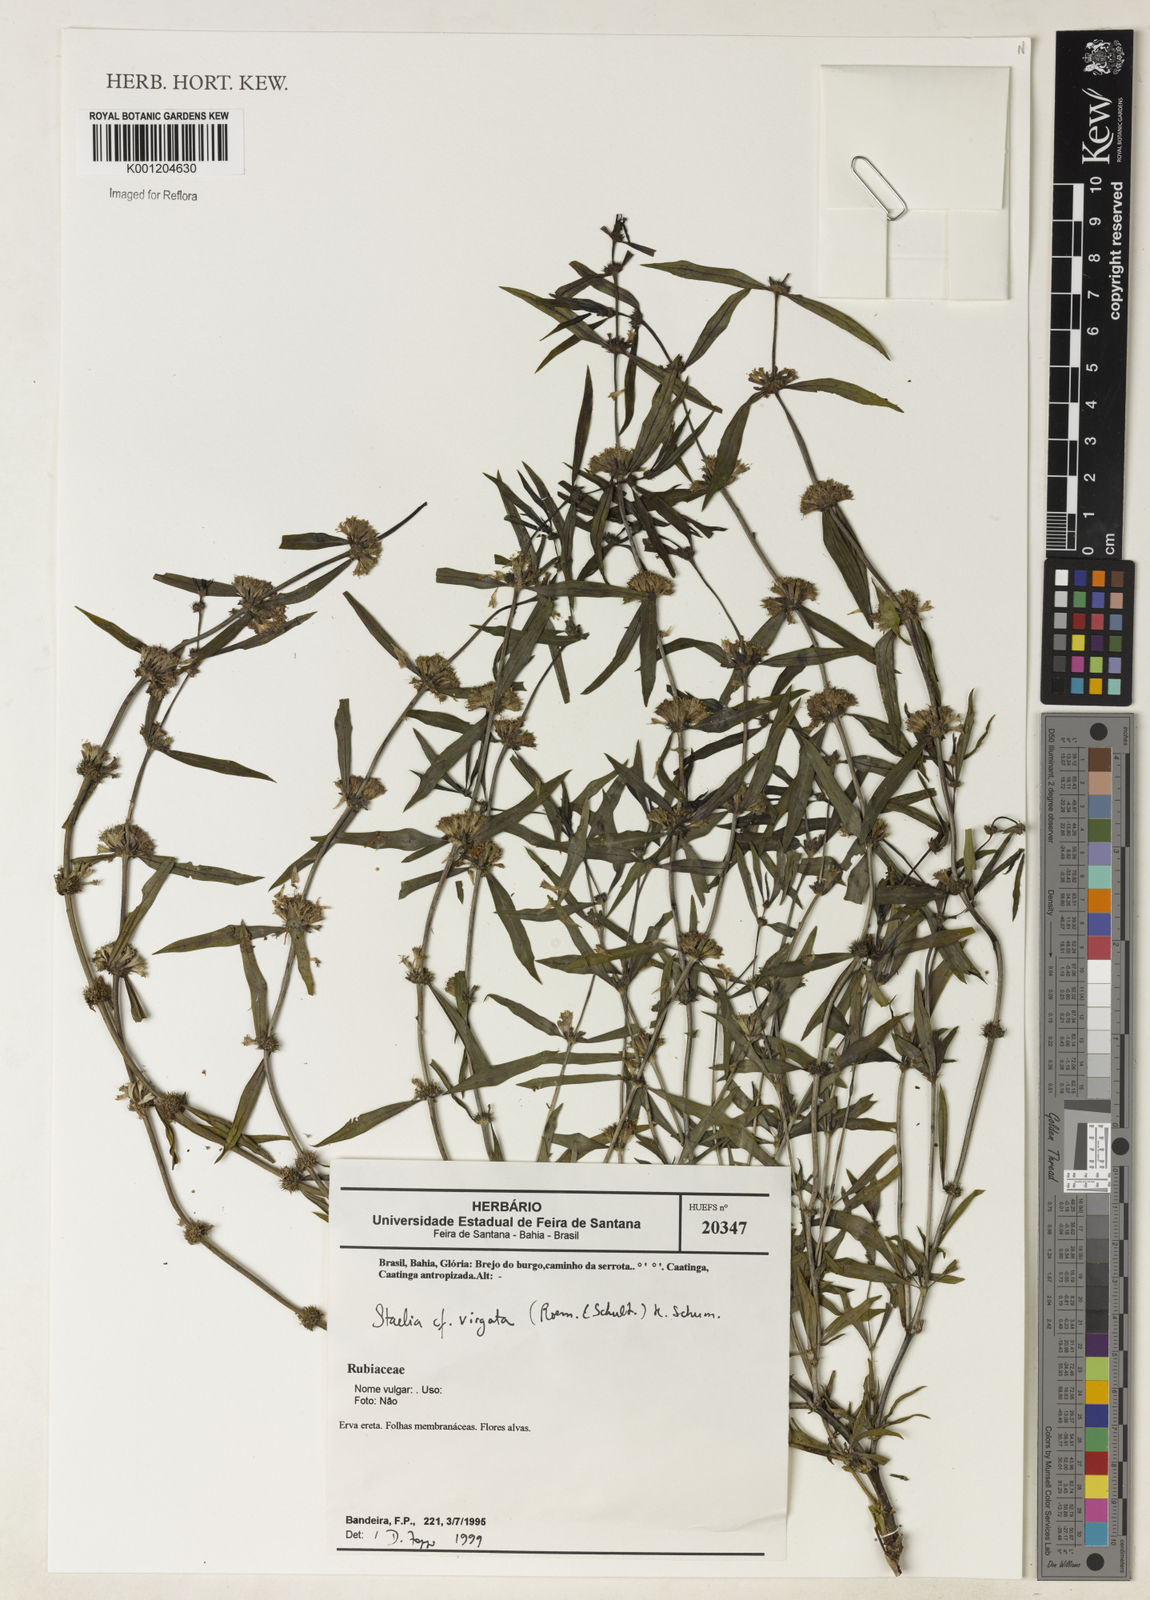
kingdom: Plantae
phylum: Tracheophyta
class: Magnoliopsida
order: Gentianales
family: Rubiaceae
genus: Staelia
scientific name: Staelia virgata
